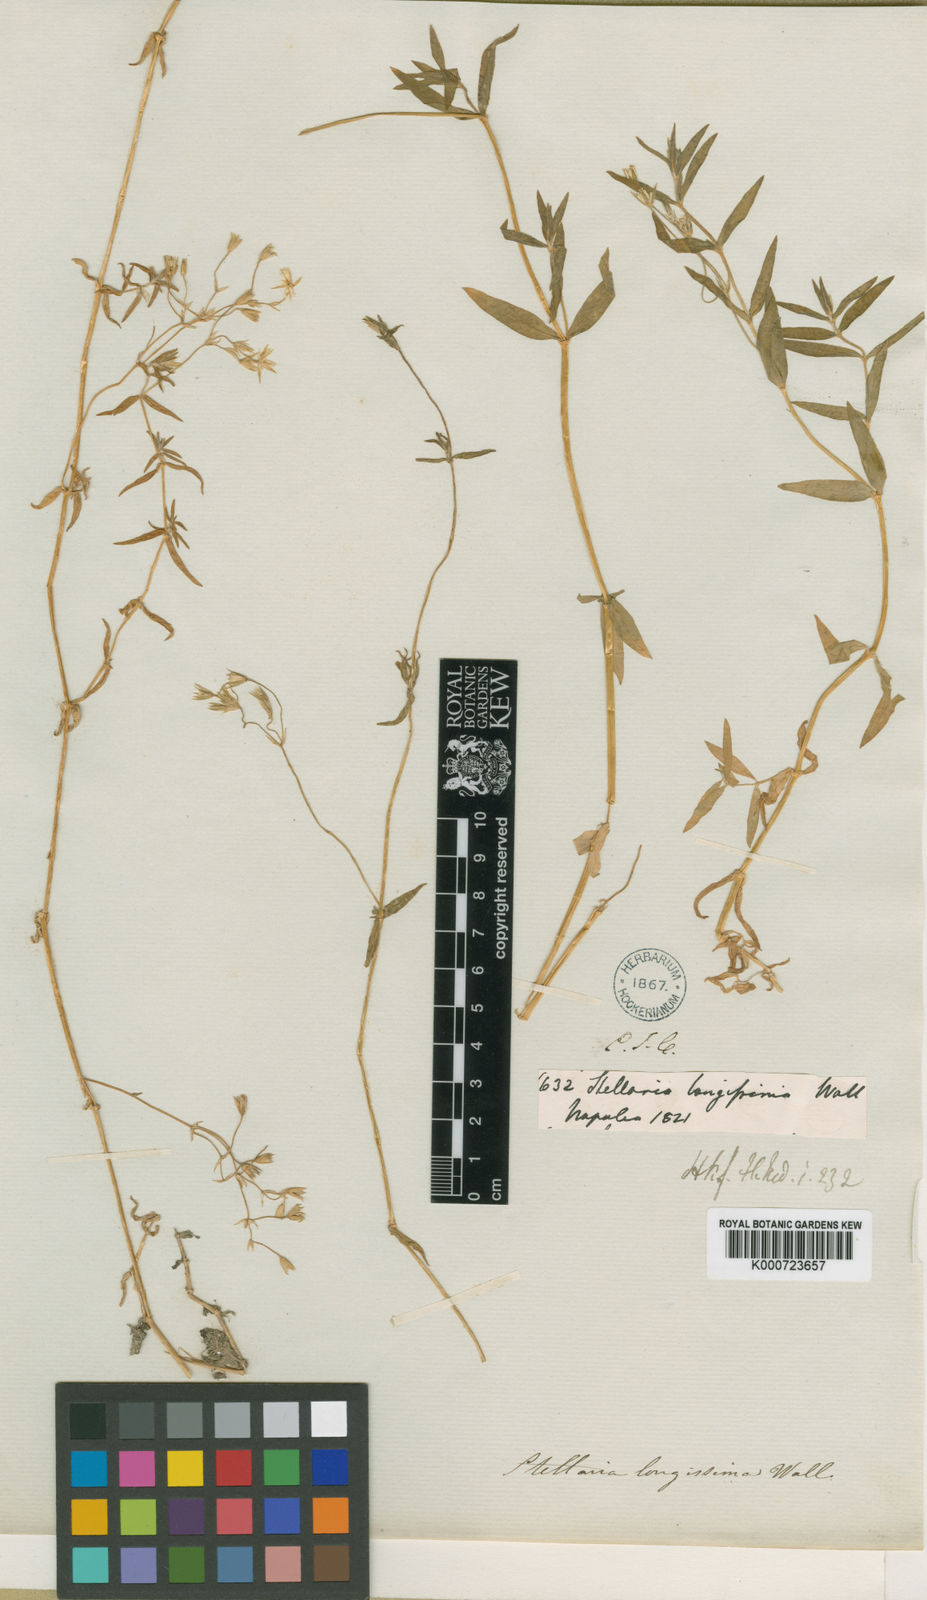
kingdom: Plantae
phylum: Tracheophyta
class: Magnoliopsida
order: Caryophyllales
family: Caryophyllaceae
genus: Stellaria
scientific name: Stellaria
